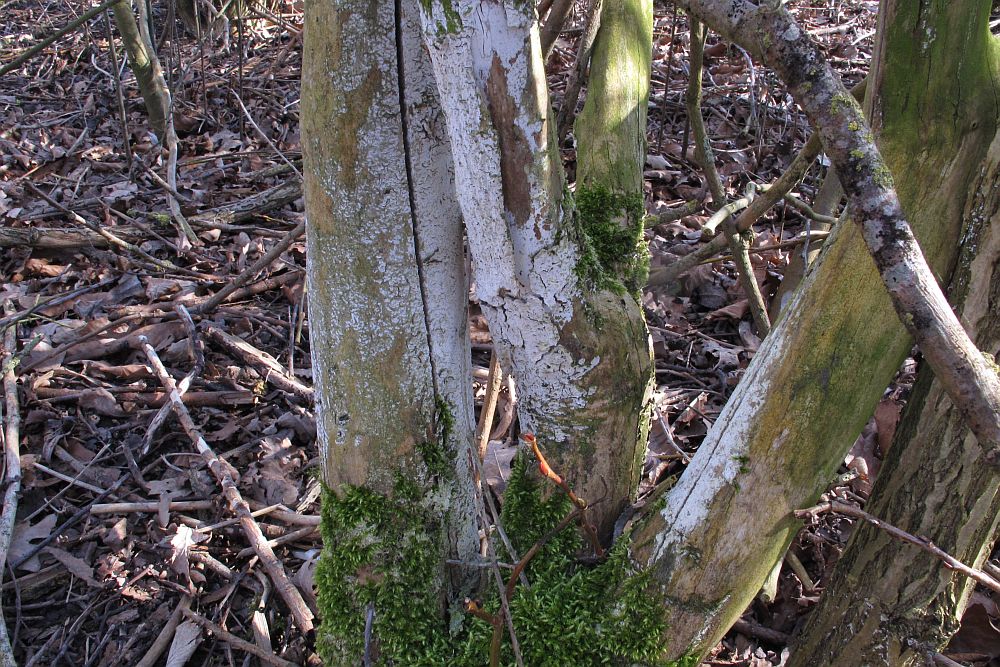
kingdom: Fungi
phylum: Basidiomycota
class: Agaricomycetes
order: Corticiales
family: Corticiaceae
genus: Lyomyces
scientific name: Lyomyces sambuci
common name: almindelig hyldehinde
